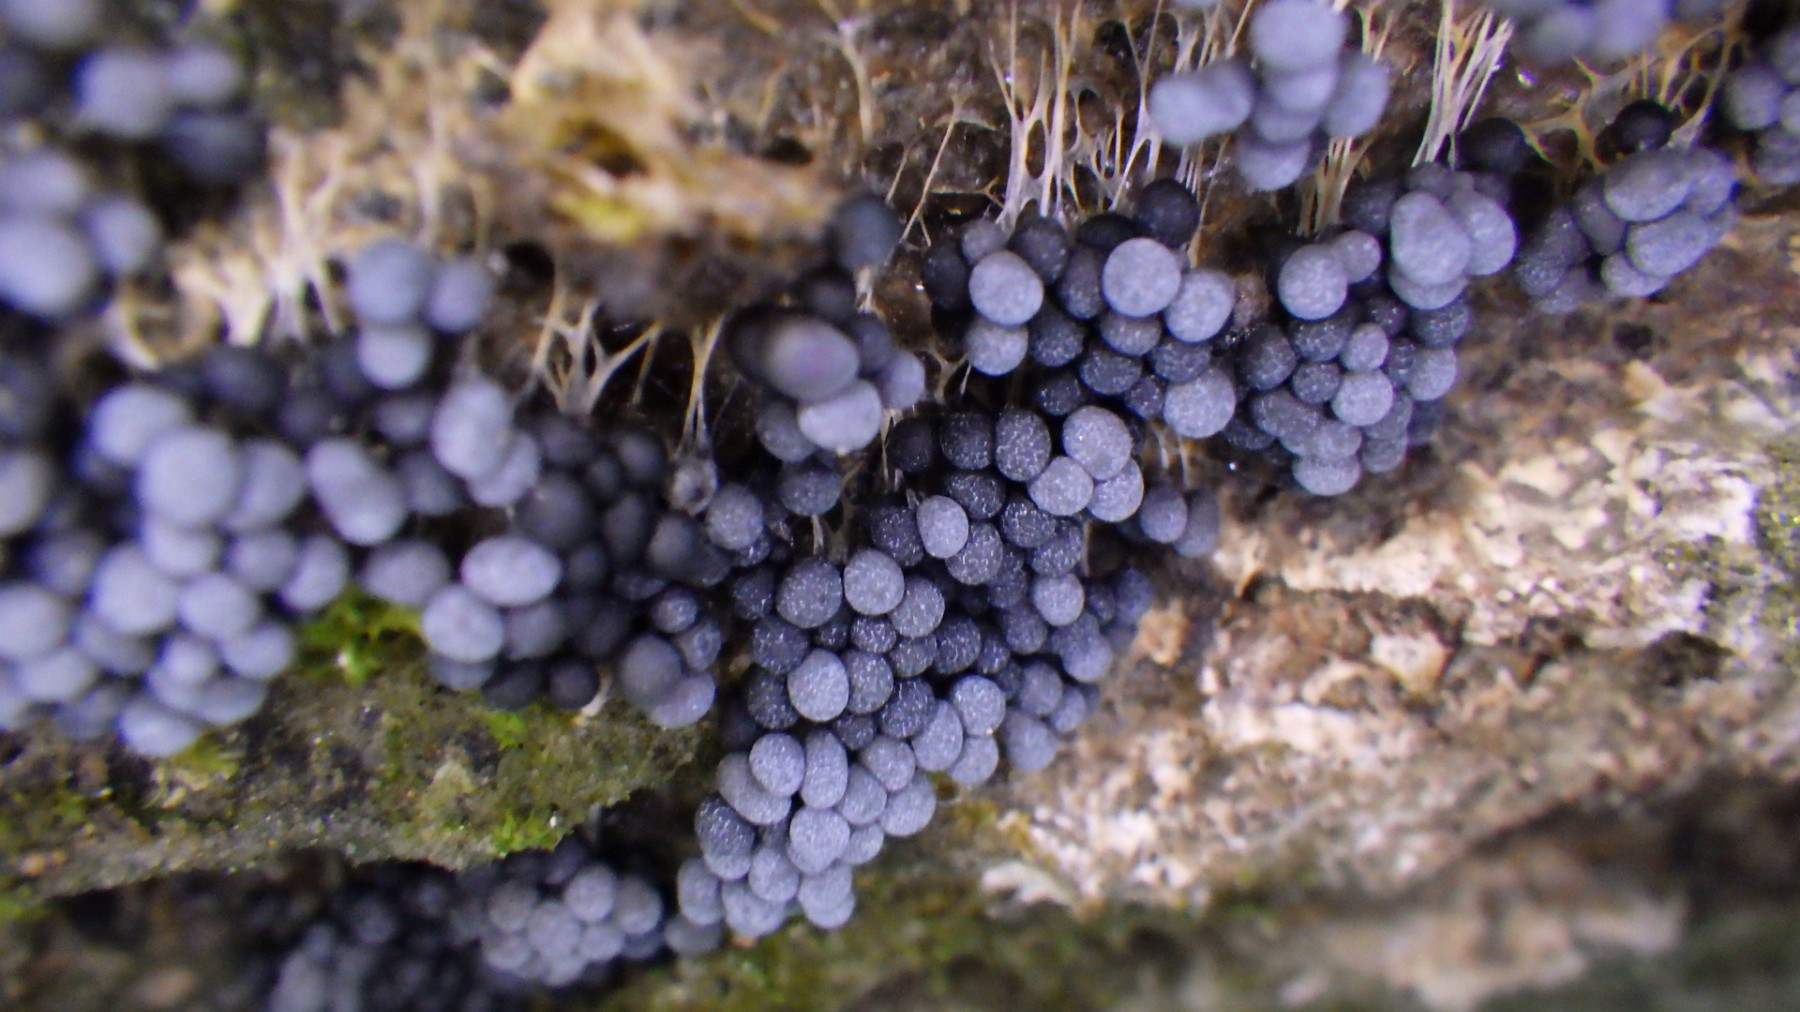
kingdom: Protozoa
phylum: Mycetozoa
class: Myxomycetes
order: Physarales
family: Physaraceae
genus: Badhamia
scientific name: Badhamia utricularis
